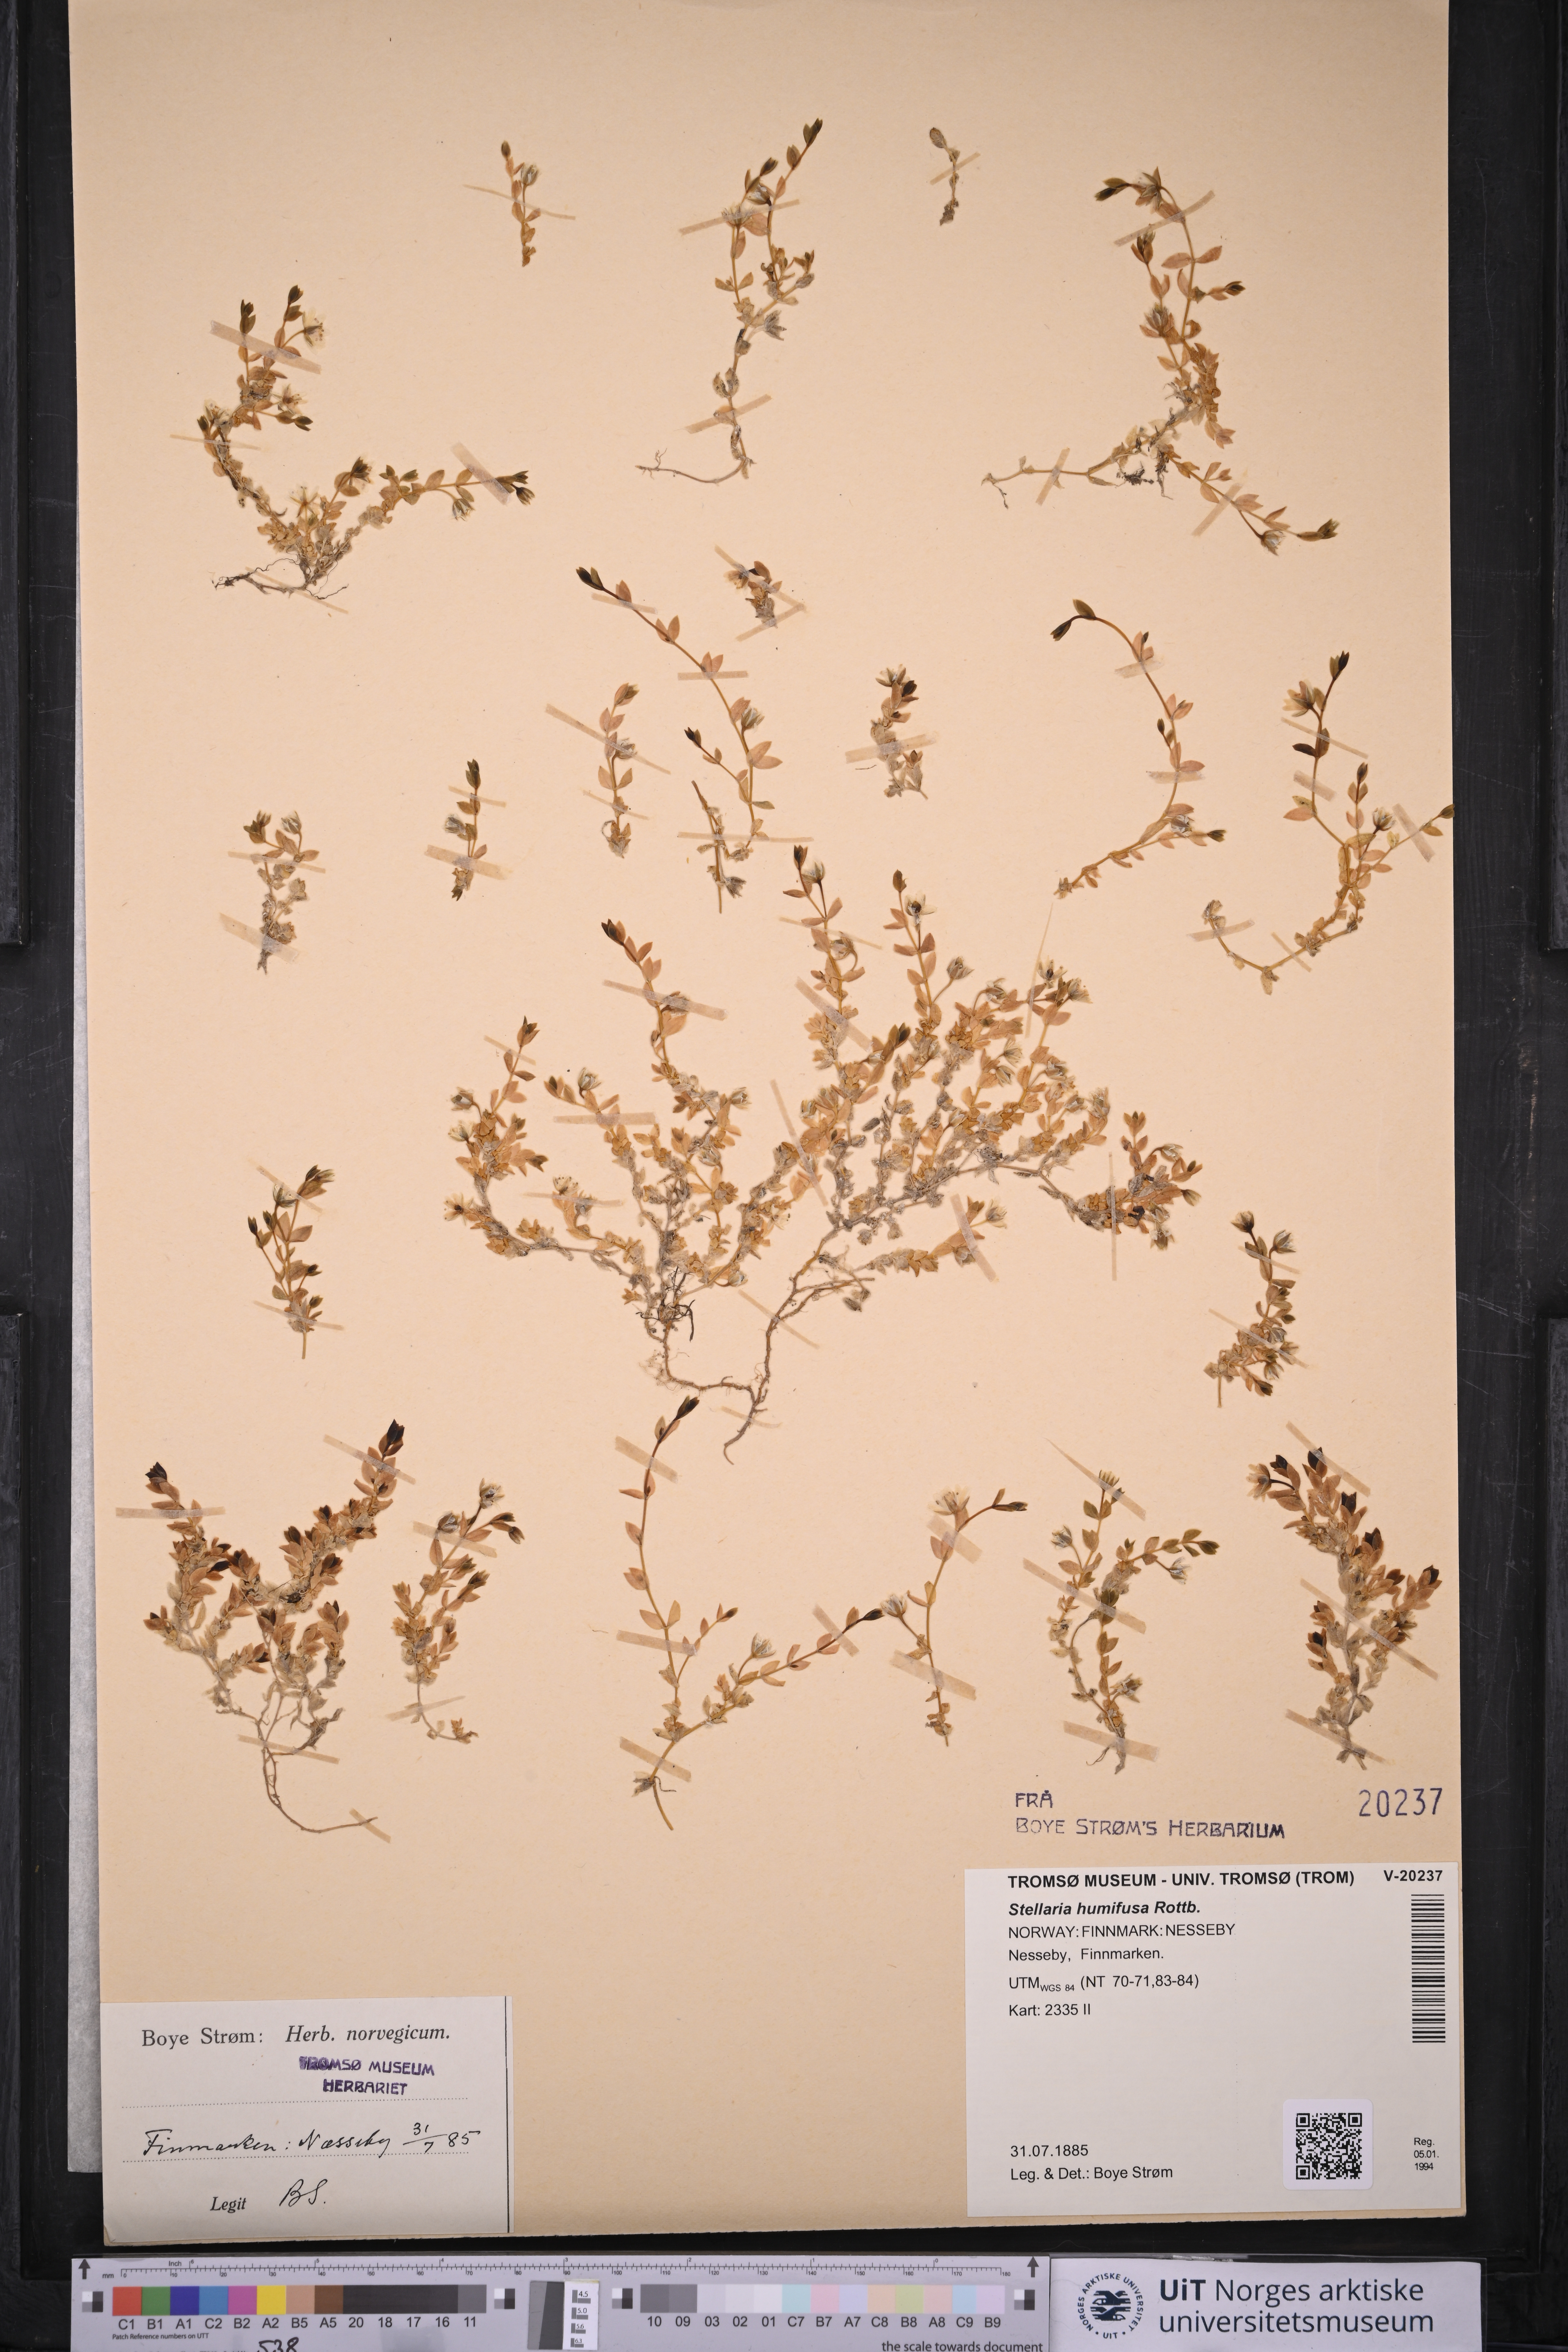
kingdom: Plantae
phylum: Tracheophyta
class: Magnoliopsida
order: Caryophyllales
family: Caryophyllaceae
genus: Stellaria
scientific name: Stellaria humifusa
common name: Creeping starwort
